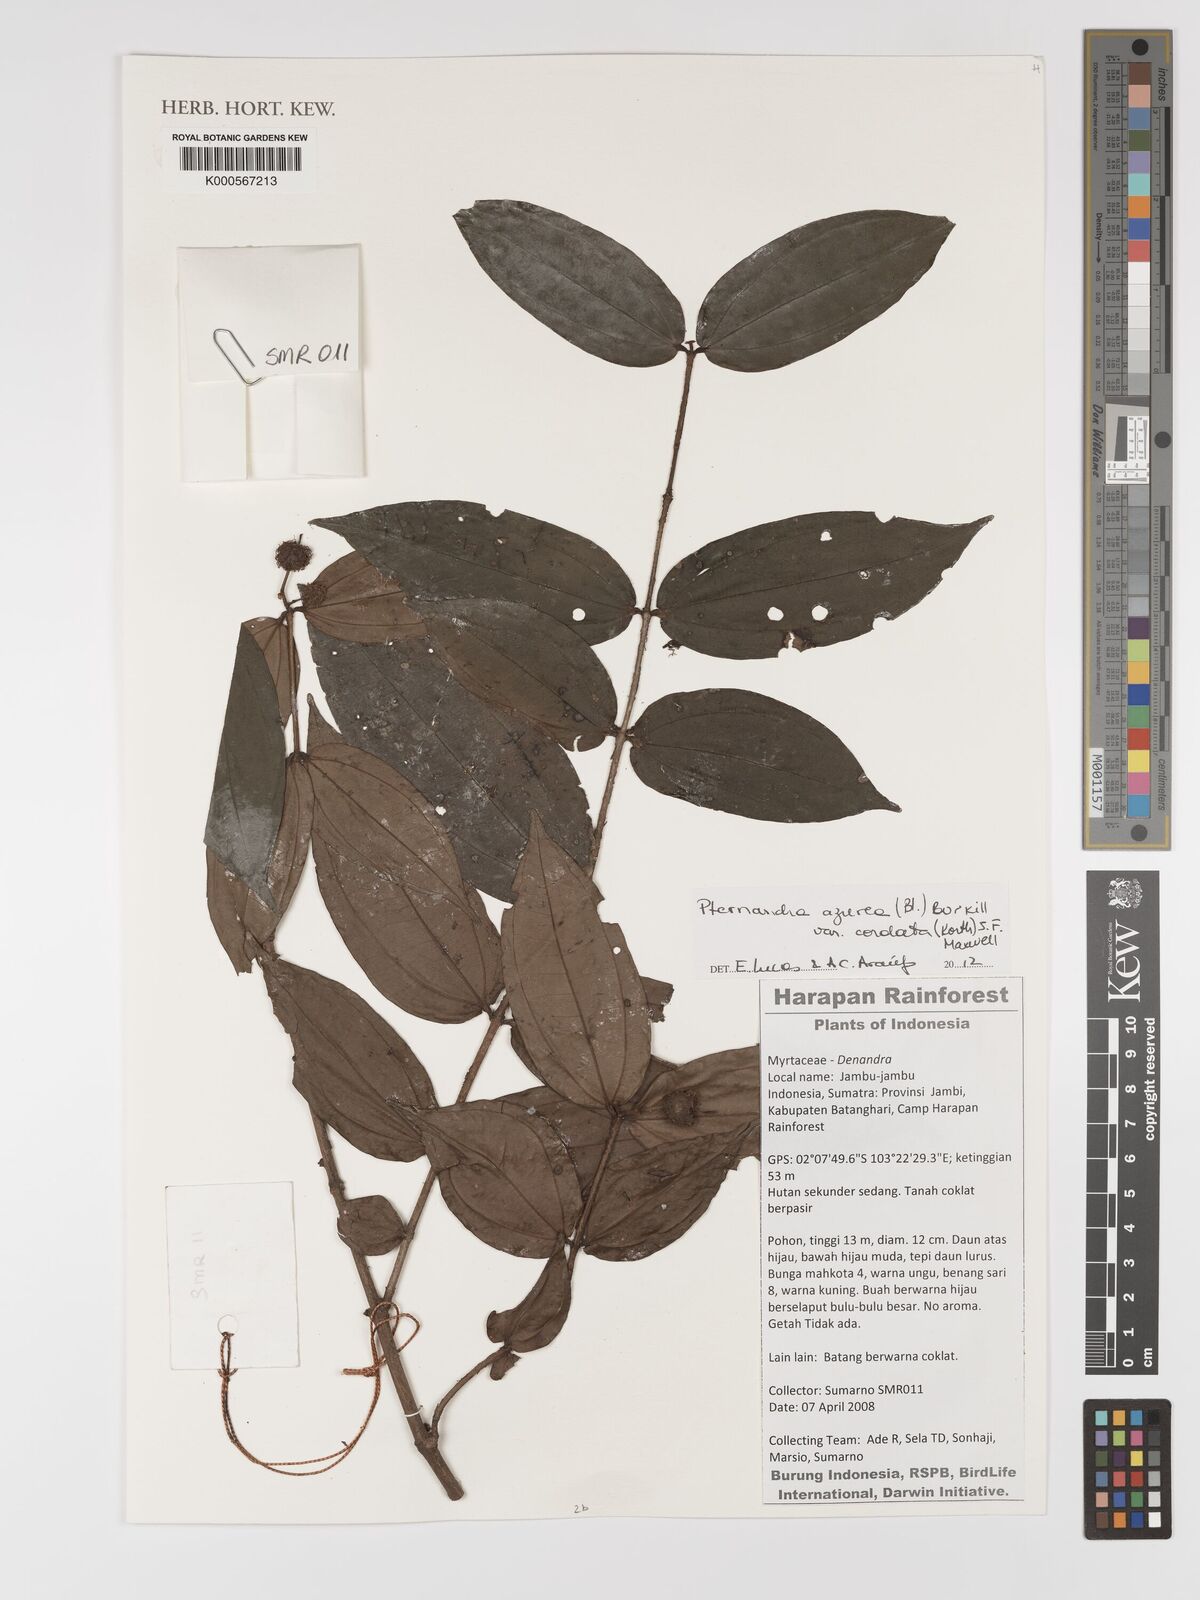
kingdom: Plantae
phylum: Tracheophyta
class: Magnoliopsida
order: Myrtales
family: Melastomataceae
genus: Pternandra
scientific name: Pternandra azurea
